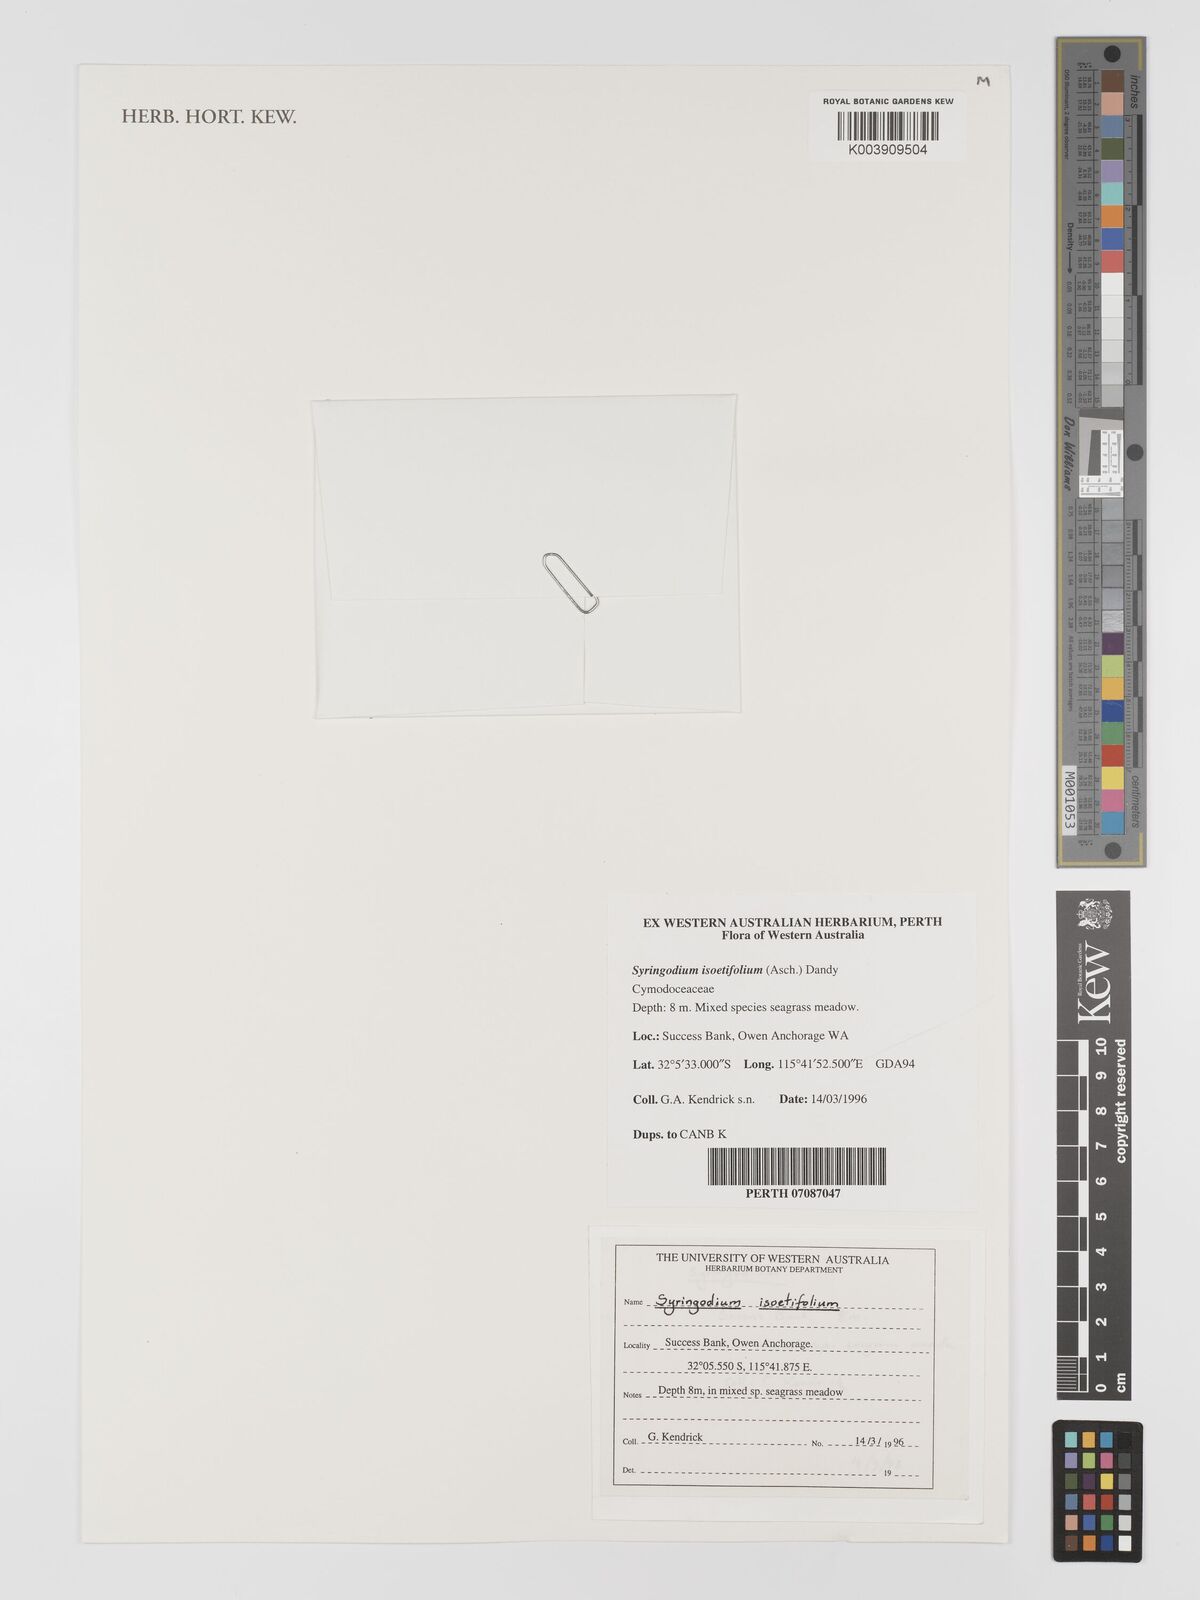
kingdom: Plantae
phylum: Tracheophyta
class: Liliopsida
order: Alismatales
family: Cymodoceaceae
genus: Syringodium
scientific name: Syringodium isoetifolium
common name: Species code: si
